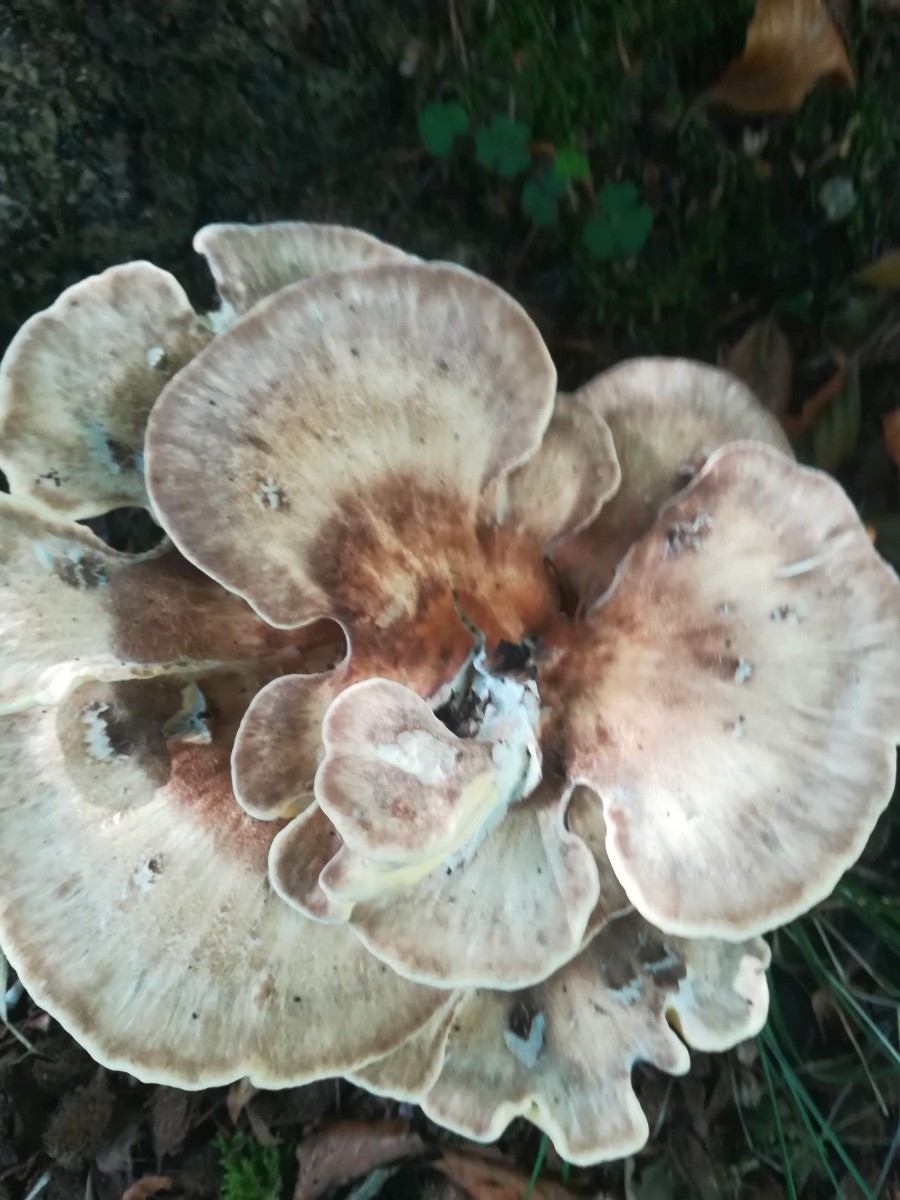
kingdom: Fungi
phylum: Basidiomycota
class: Agaricomycetes
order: Polyporales
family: Meripilaceae
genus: Meripilus
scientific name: Meripilus giganteus
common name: kæmpeporesvamp
